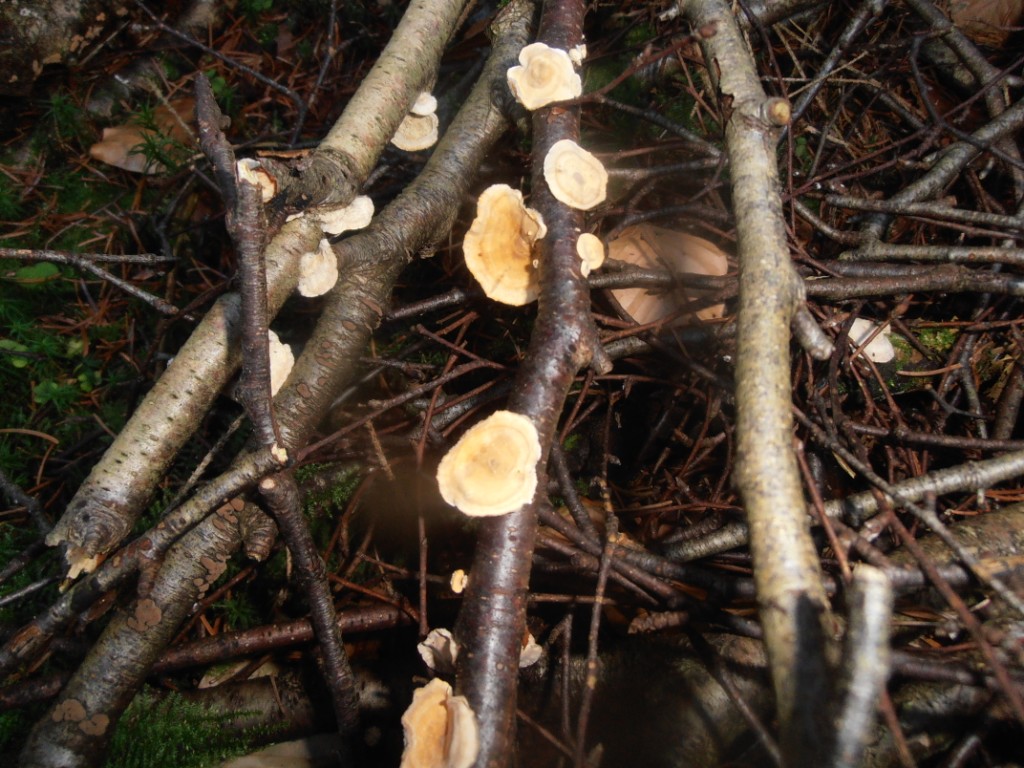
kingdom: Fungi
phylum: Basidiomycota
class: Agaricomycetes
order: Russulales
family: Stereaceae
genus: Stereum
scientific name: Stereum hirsutum
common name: håret lædersvamp
